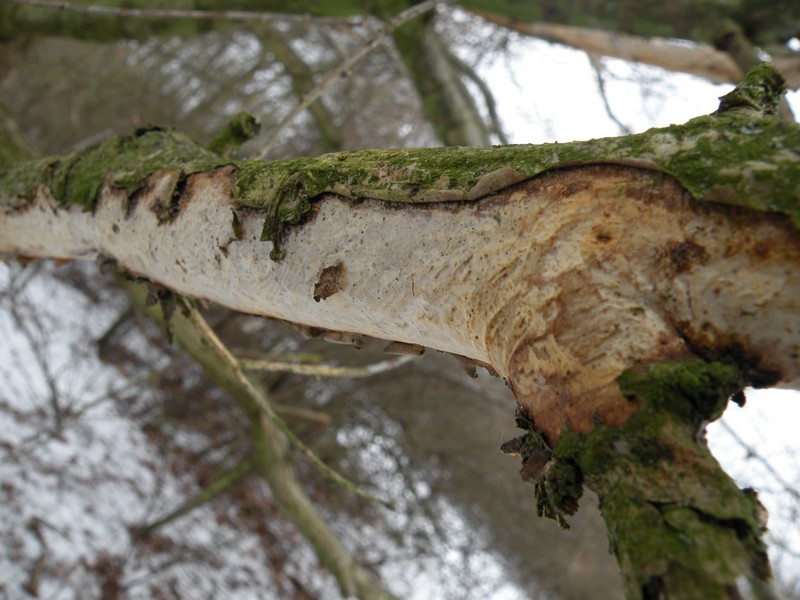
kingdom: Fungi
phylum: Basidiomycota
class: Agaricomycetes
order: Corticiales
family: Vuilleminiaceae
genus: Vuilleminia
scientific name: Vuilleminia comedens
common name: almindelig barksprænger
